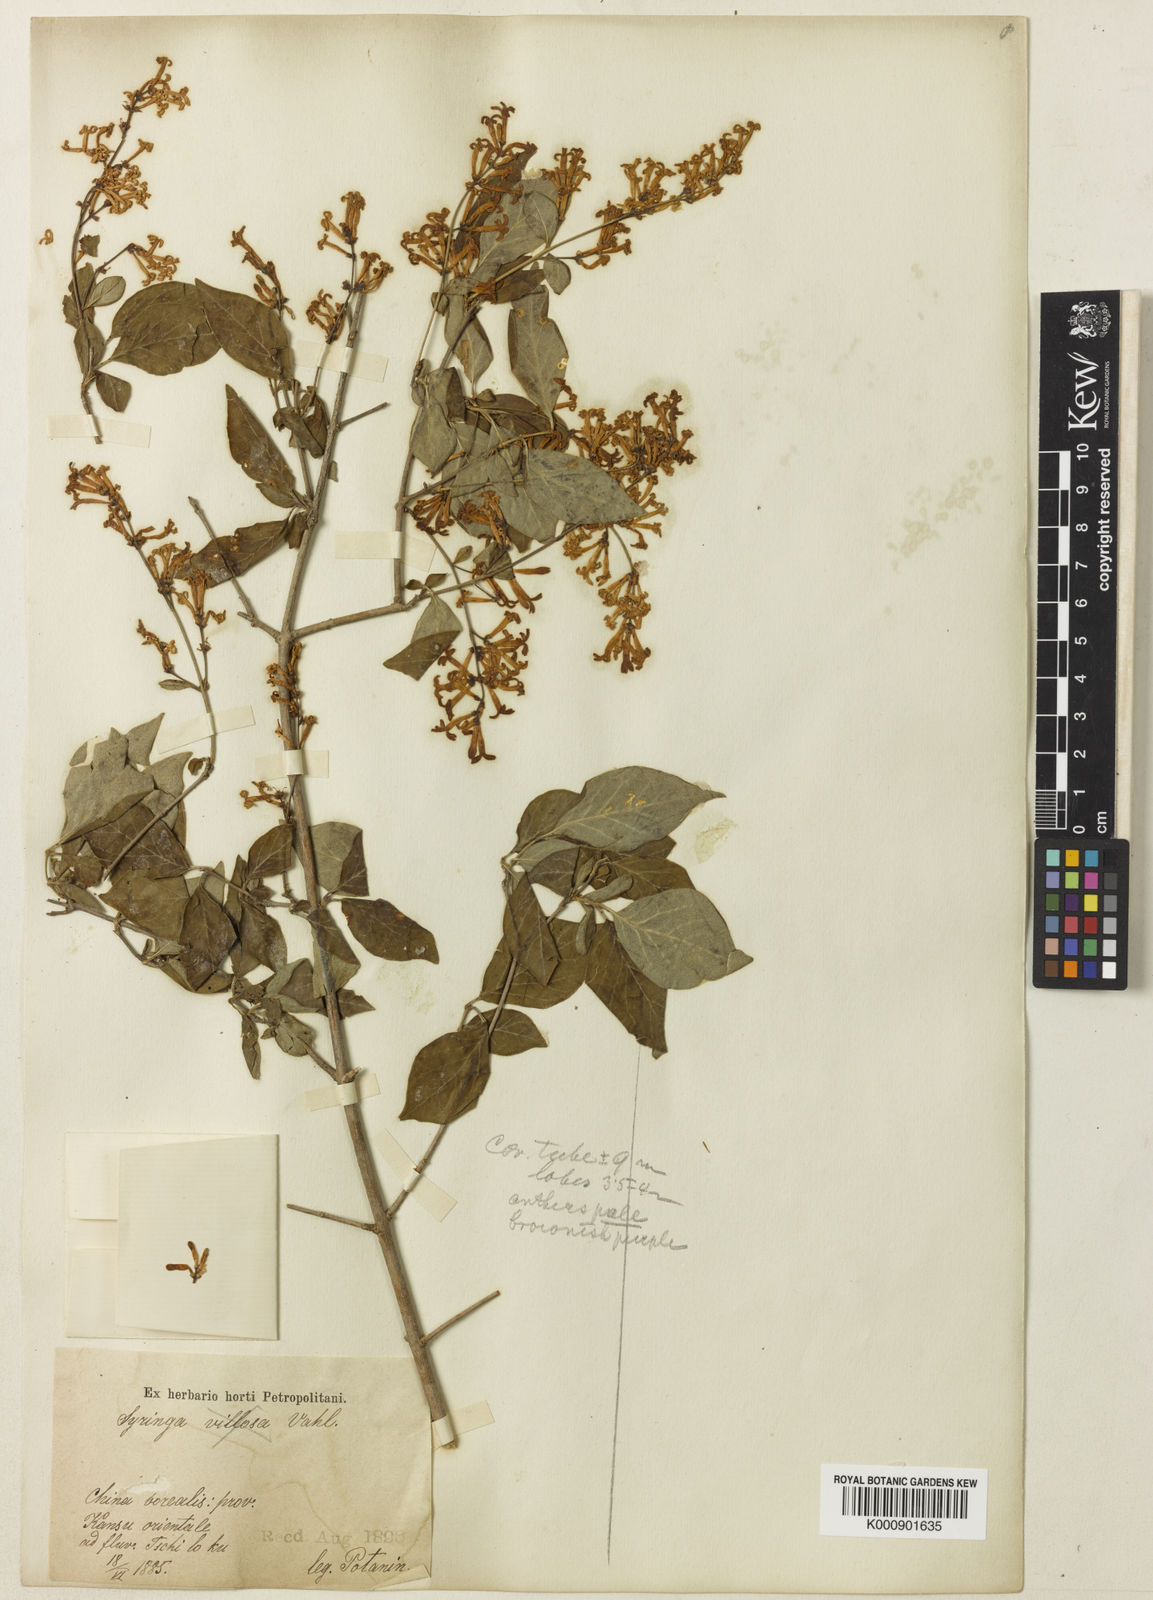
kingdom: Plantae
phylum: Tracheophyta
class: Magnoliopsida
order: Lamiales
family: Oleaceae
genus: Syringa
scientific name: Syringa pubescens
